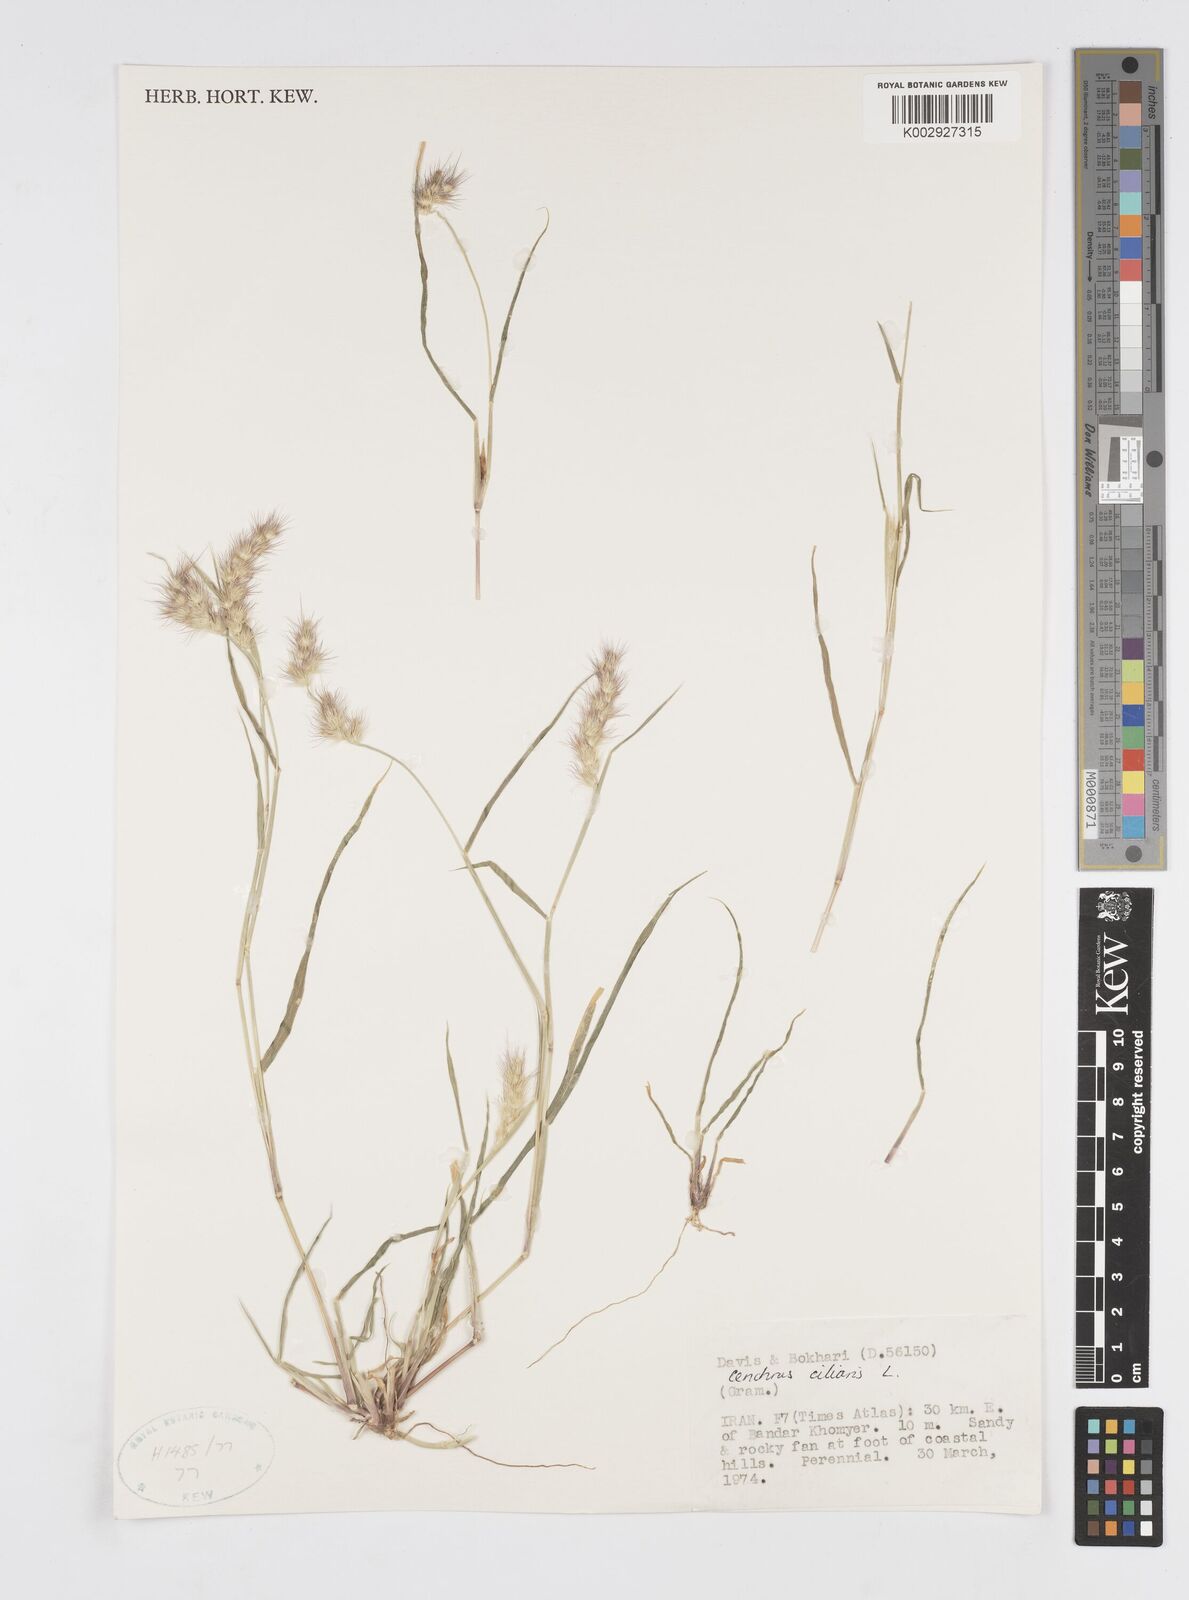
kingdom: Plantae
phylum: Tracheophyta
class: Liliopsida
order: Poales
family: Poaceae
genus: Cenchrus
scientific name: Cenchrus ciliaris
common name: Buffelgrass
